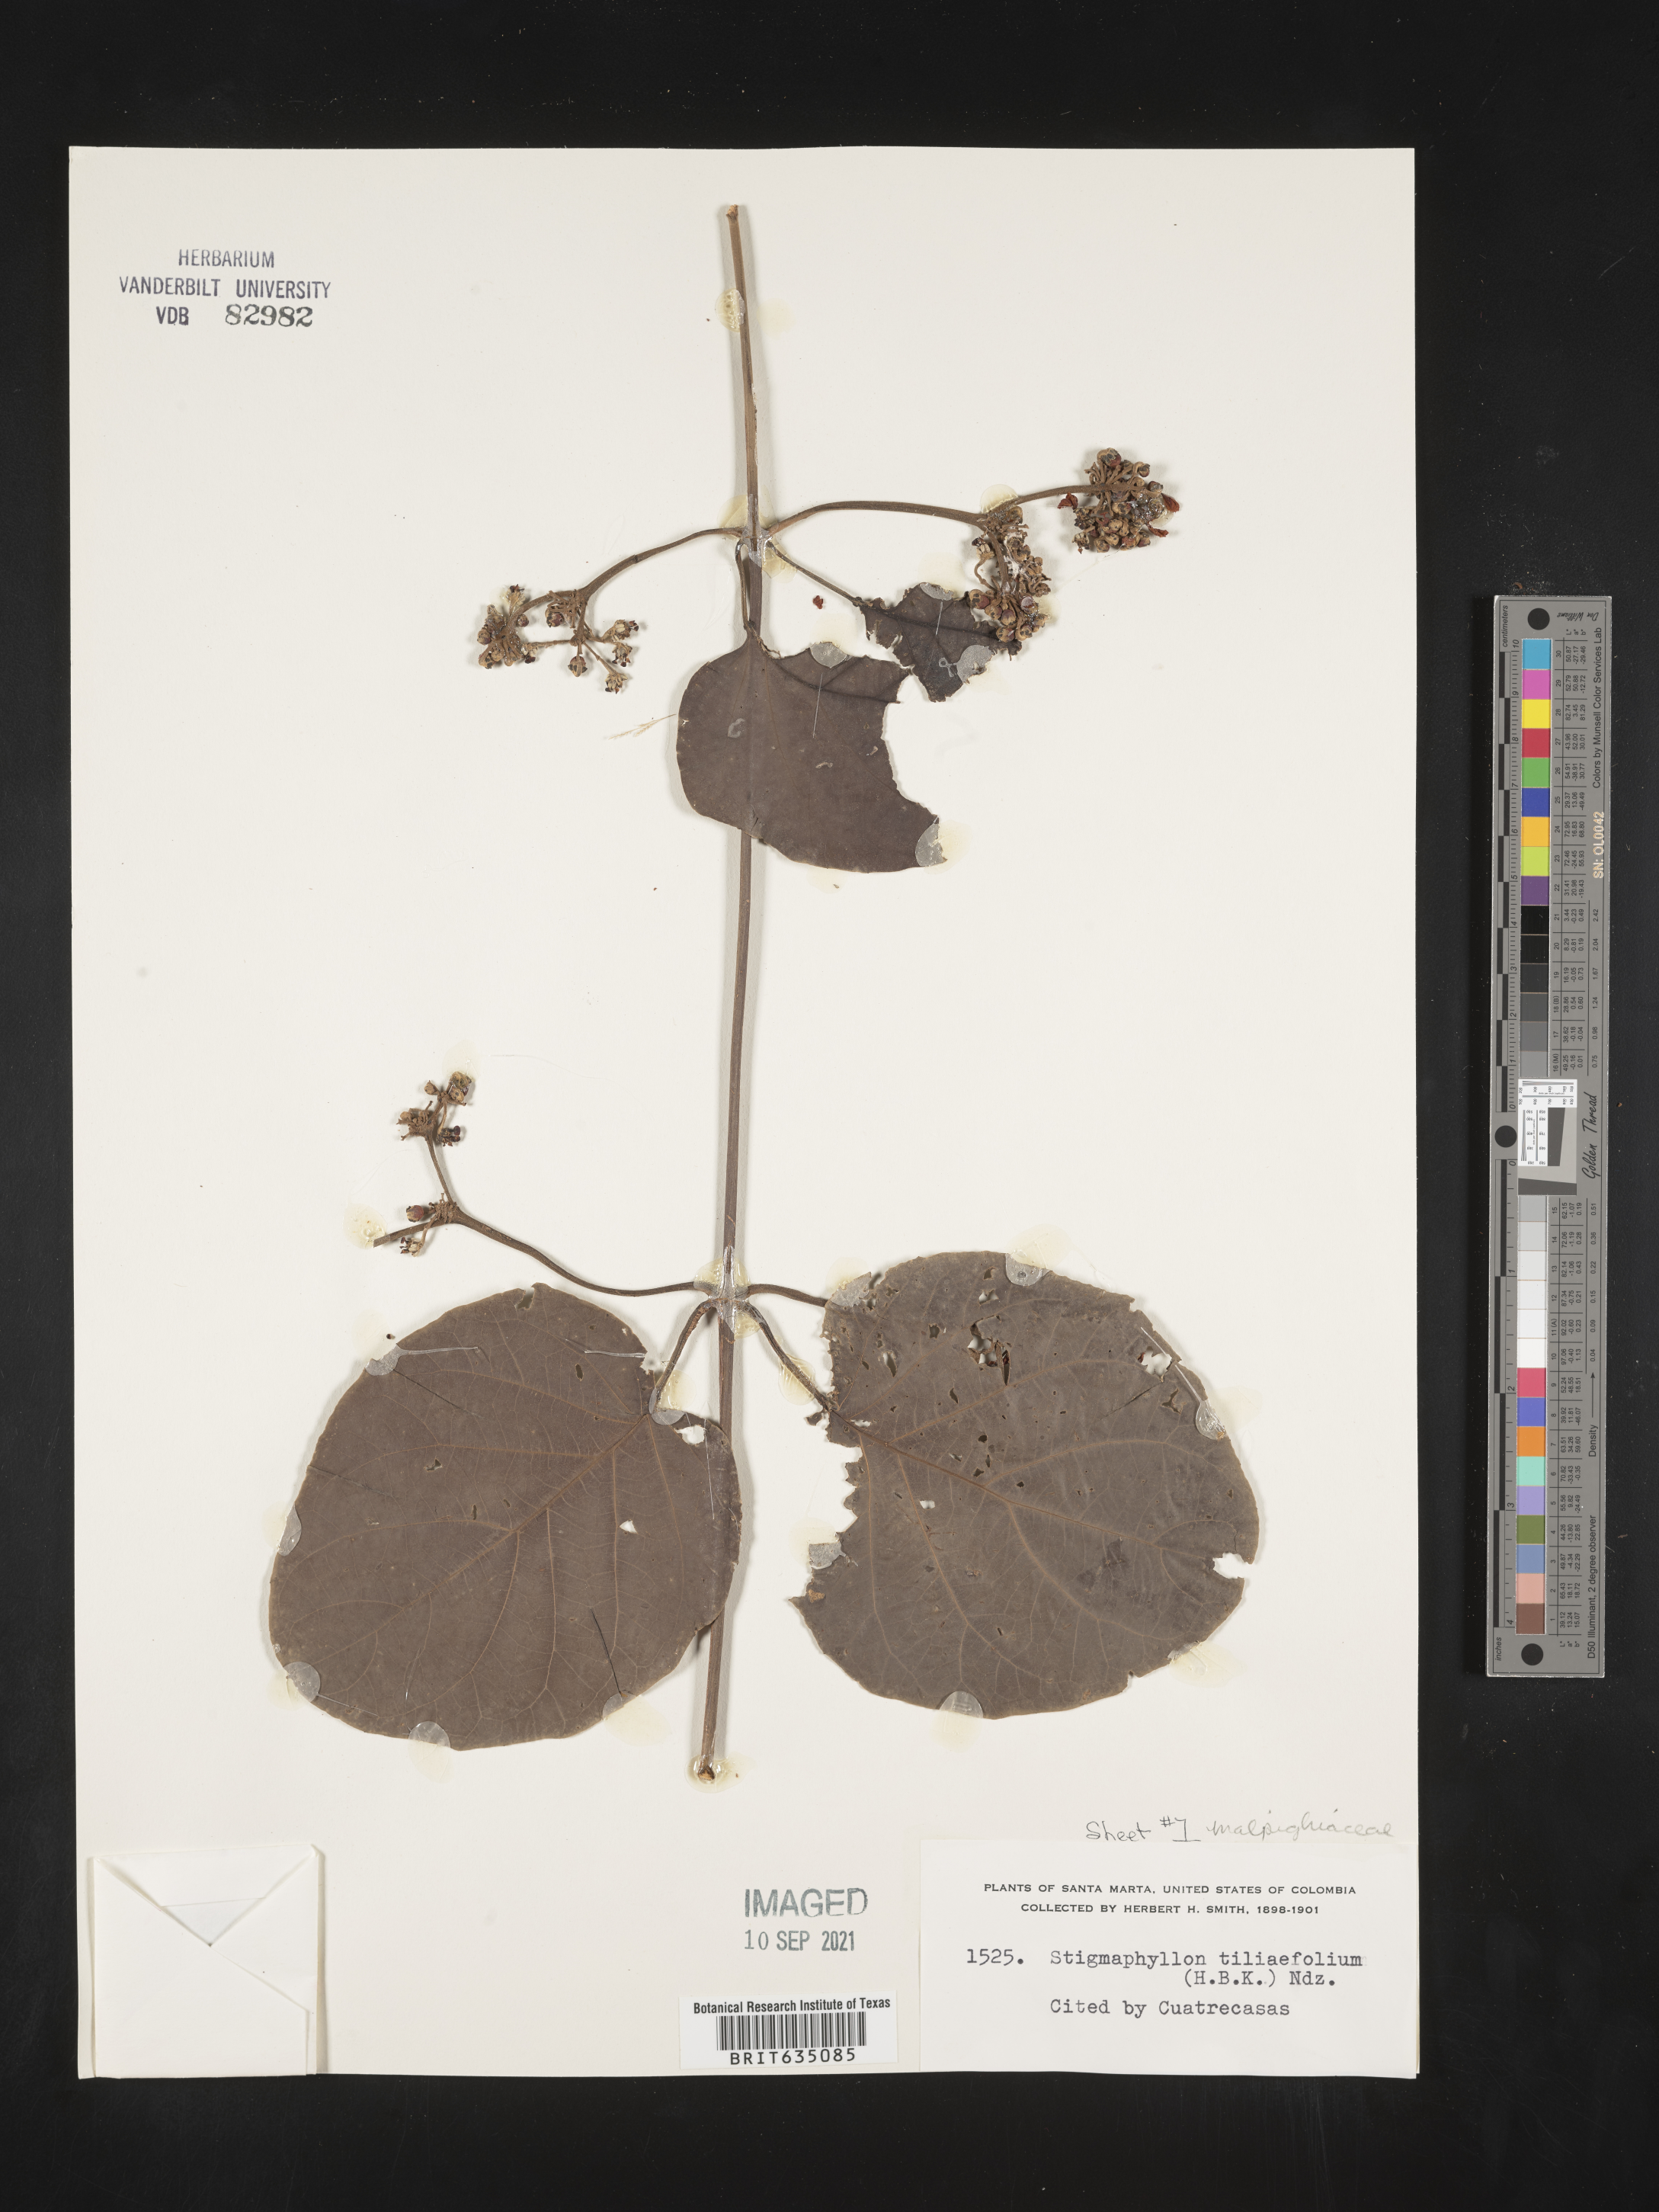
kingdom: Plantae
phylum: Tracheophyta
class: Magnoliopsida
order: Malpighiales
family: Malpighiaceae
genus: Stigmaphyllon
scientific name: Stigmaphyllon
